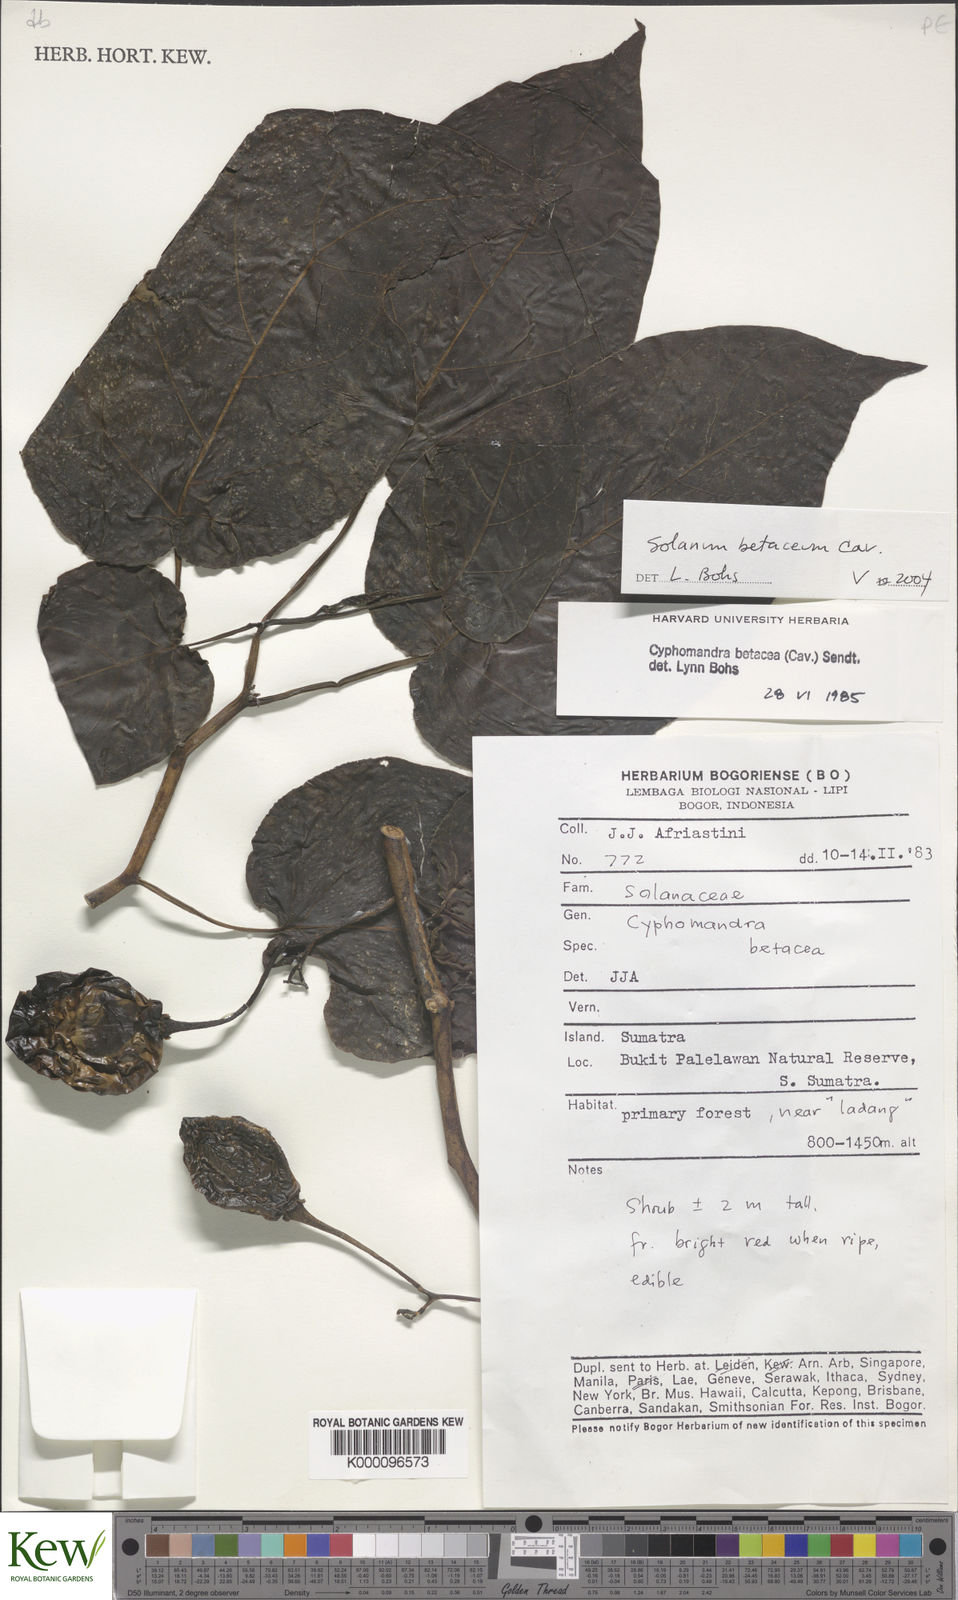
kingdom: Plantae
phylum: Tracheophyta
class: Magnoliopsida
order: Solanales
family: Solanaceae
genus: Solanum
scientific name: Solanum betaceum
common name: Tamarillo
